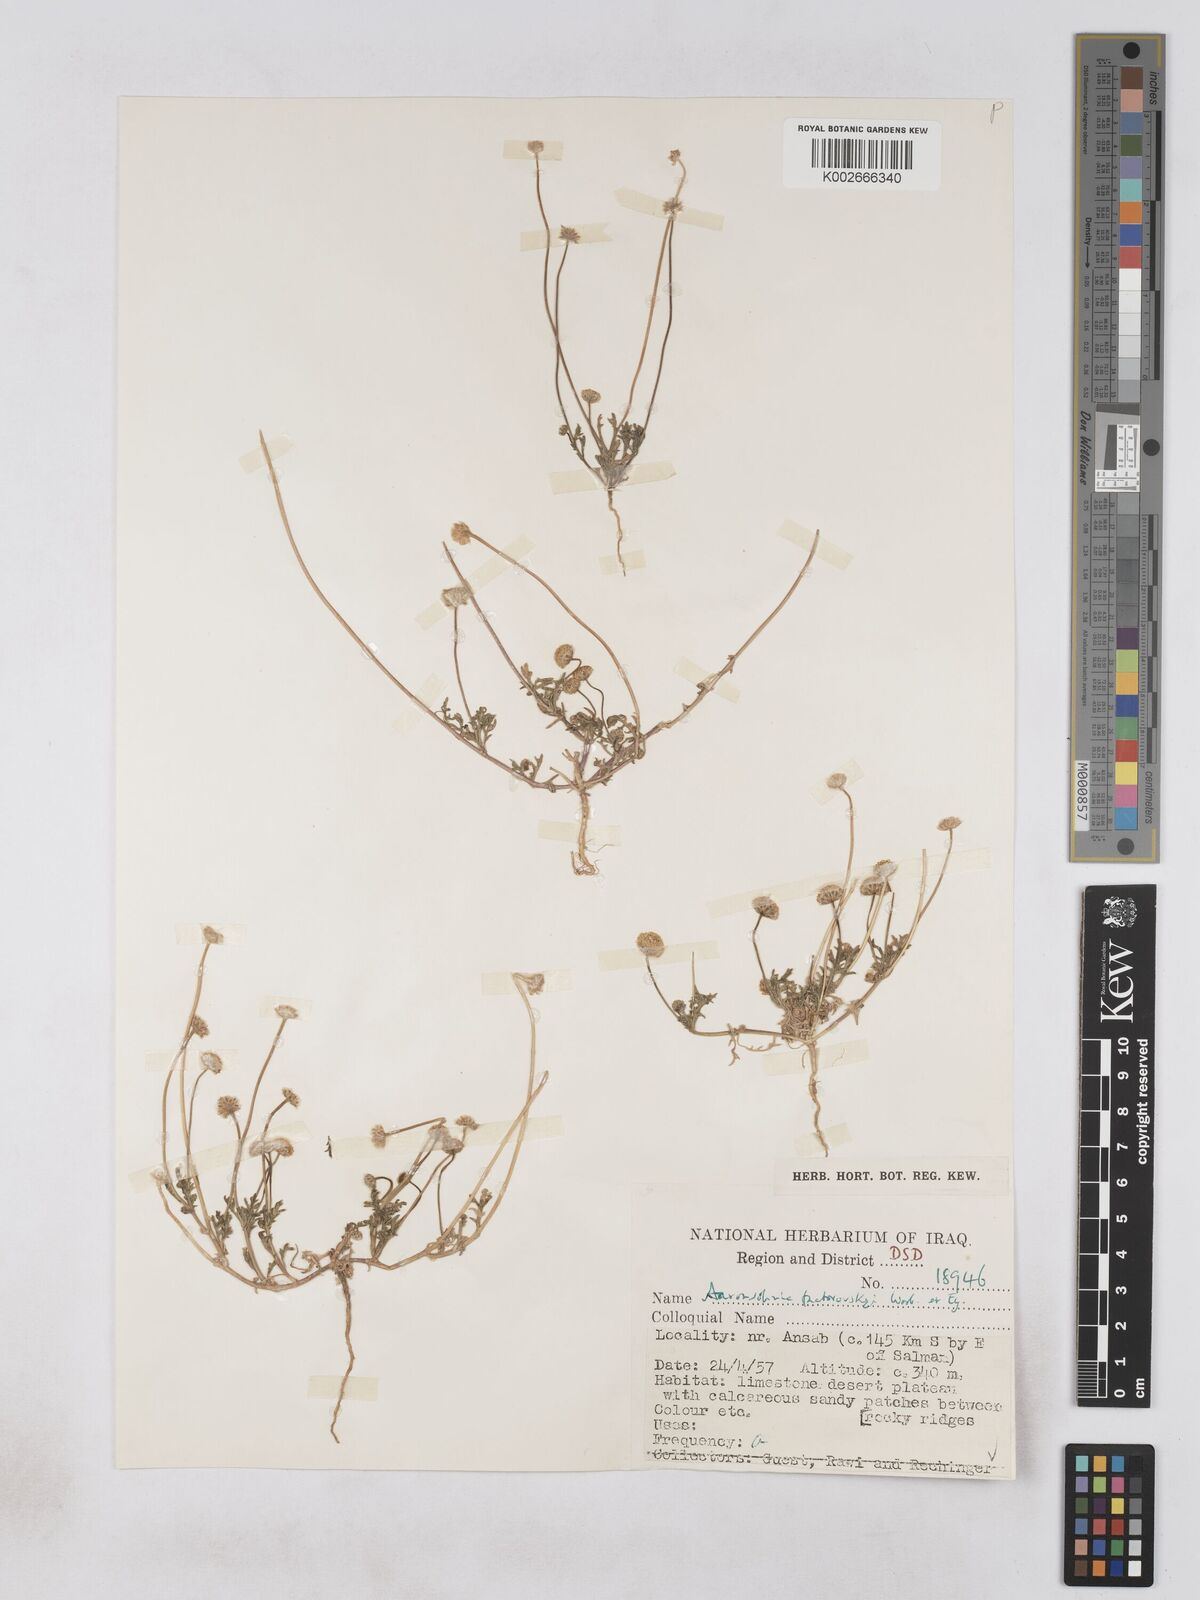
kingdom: Plantae
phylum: Tracheophyta
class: Magnoliopsida
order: Asterales
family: Asteraceae
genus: Otoglyphis
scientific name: Otoglyphis factorovskyi
